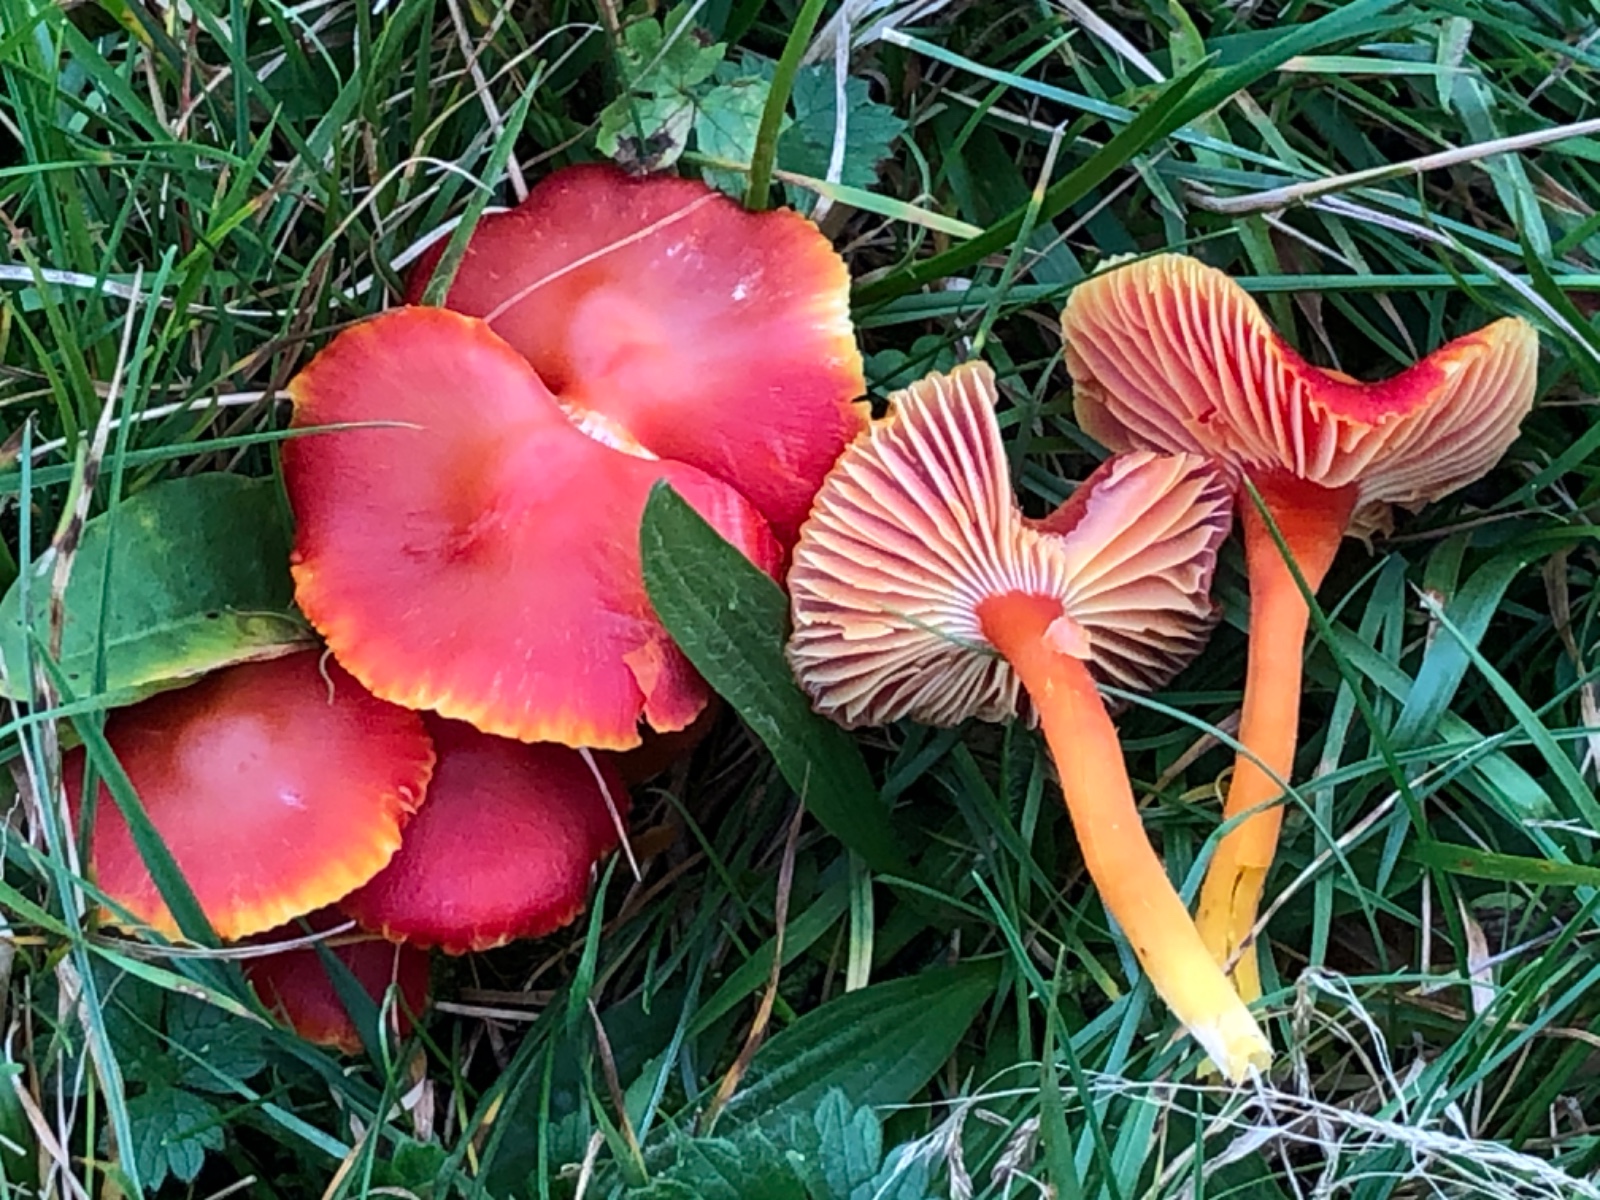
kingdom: Fungi
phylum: Basidiomycota
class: Agaricomycetes
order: Agaricales
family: Hygrophoraceae
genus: Hygrocybe
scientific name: Hygrocybe coccinea
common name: cinnober-vokshat
